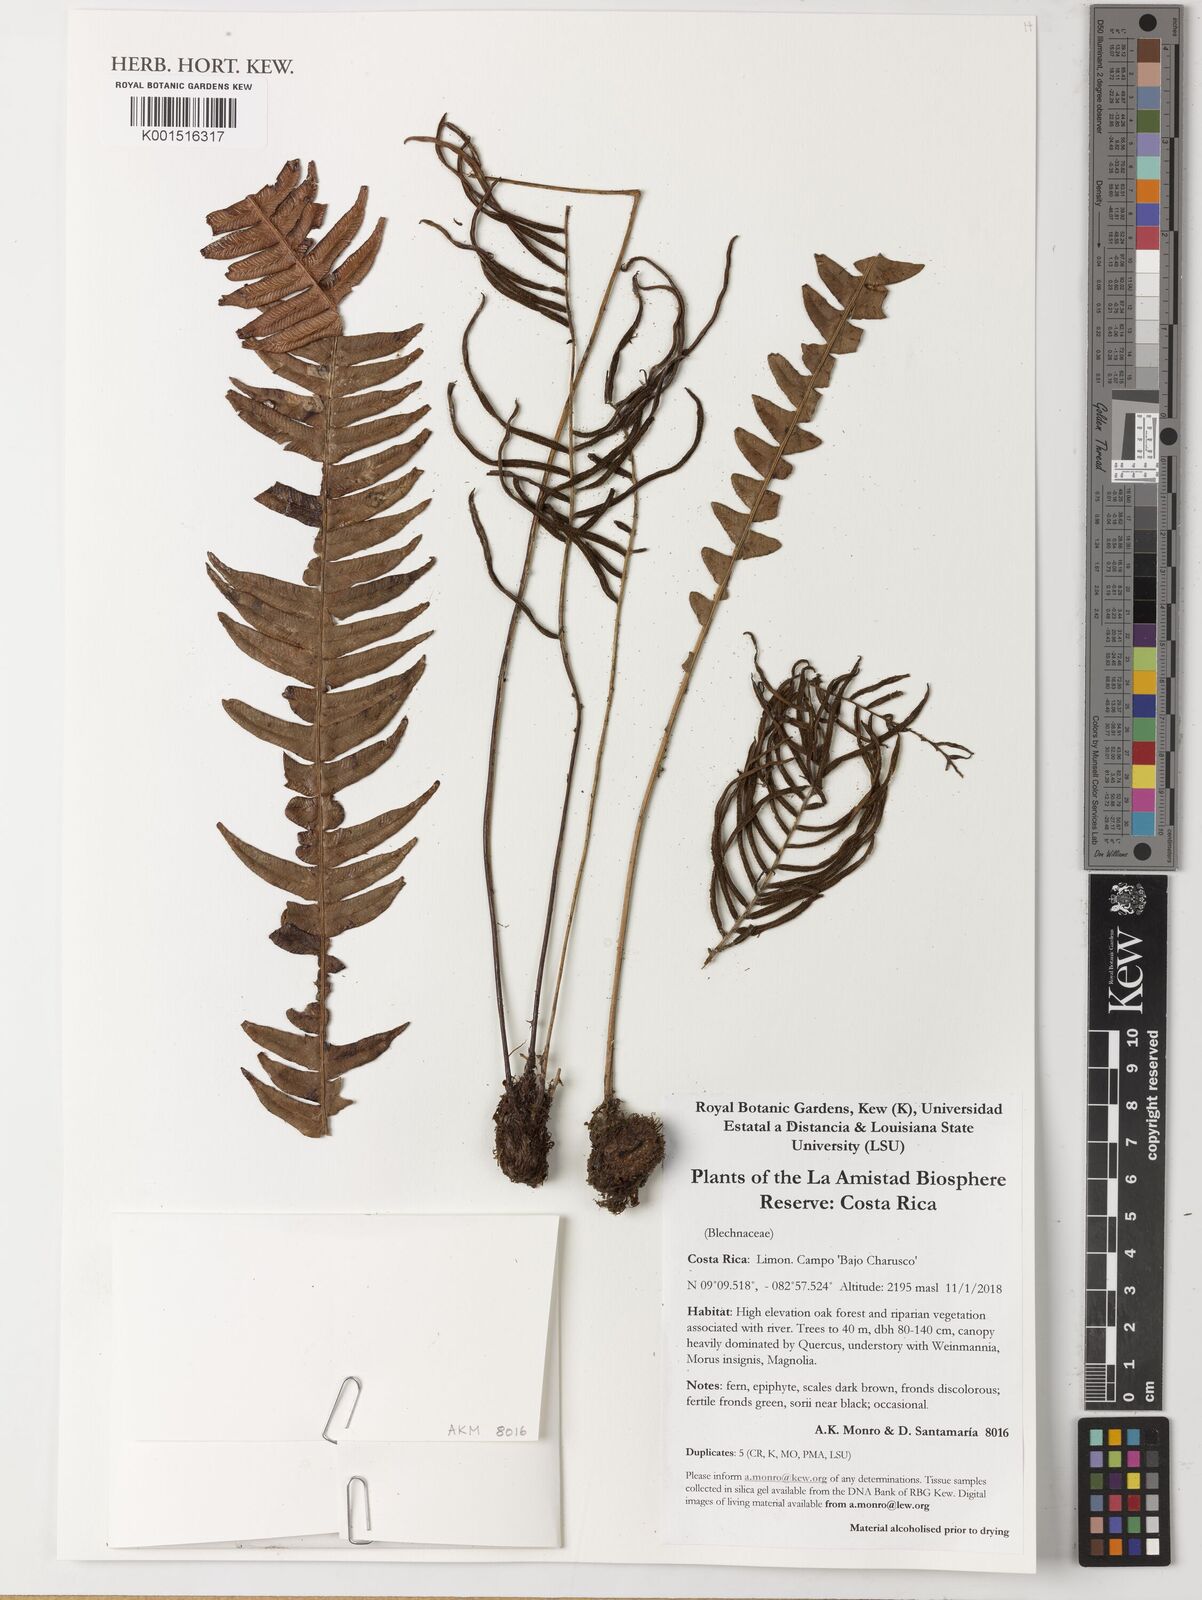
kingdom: Plantae
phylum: Tracheophyta
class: Polypodiopsida
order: Polypodiales
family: Blechnaceae
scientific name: Blechnaceae
